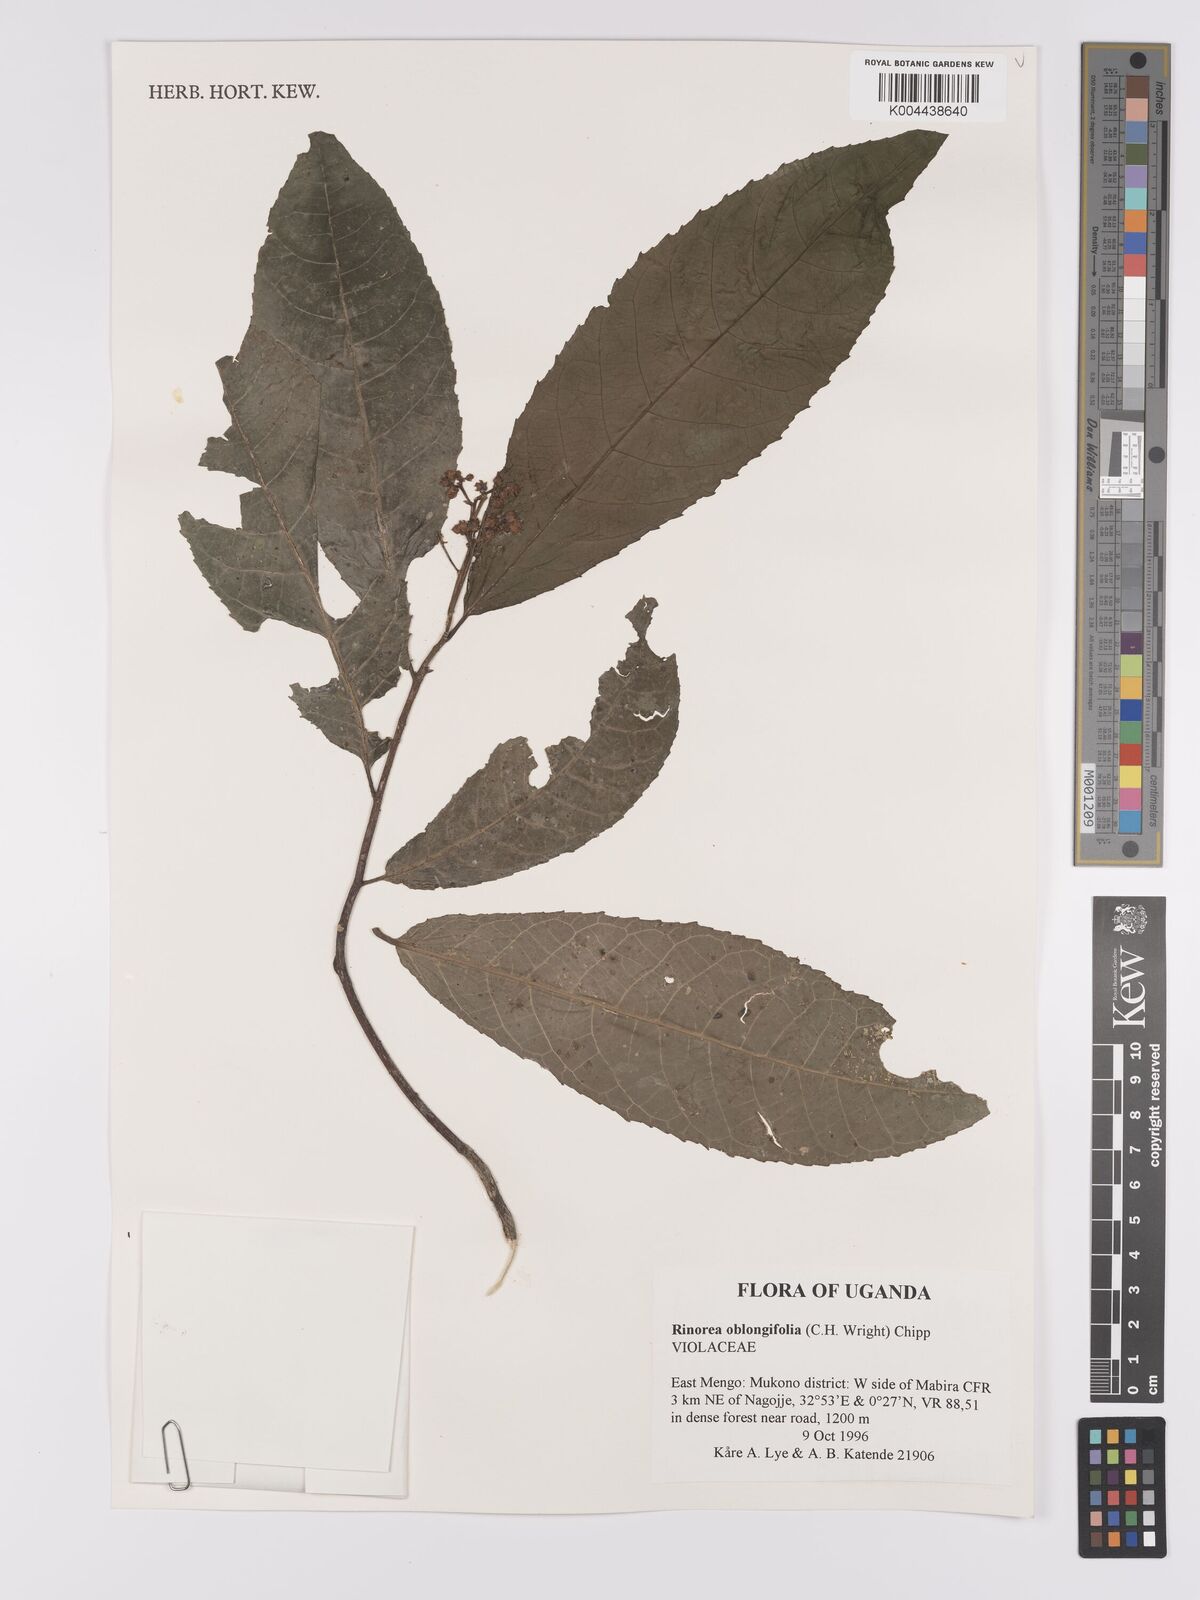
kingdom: Plantae
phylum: Tracheophyta
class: Magnoliopsida
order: Apiales
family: Pittosporaceae
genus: Marianthus
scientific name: Marianthus coeruleopunctatus
